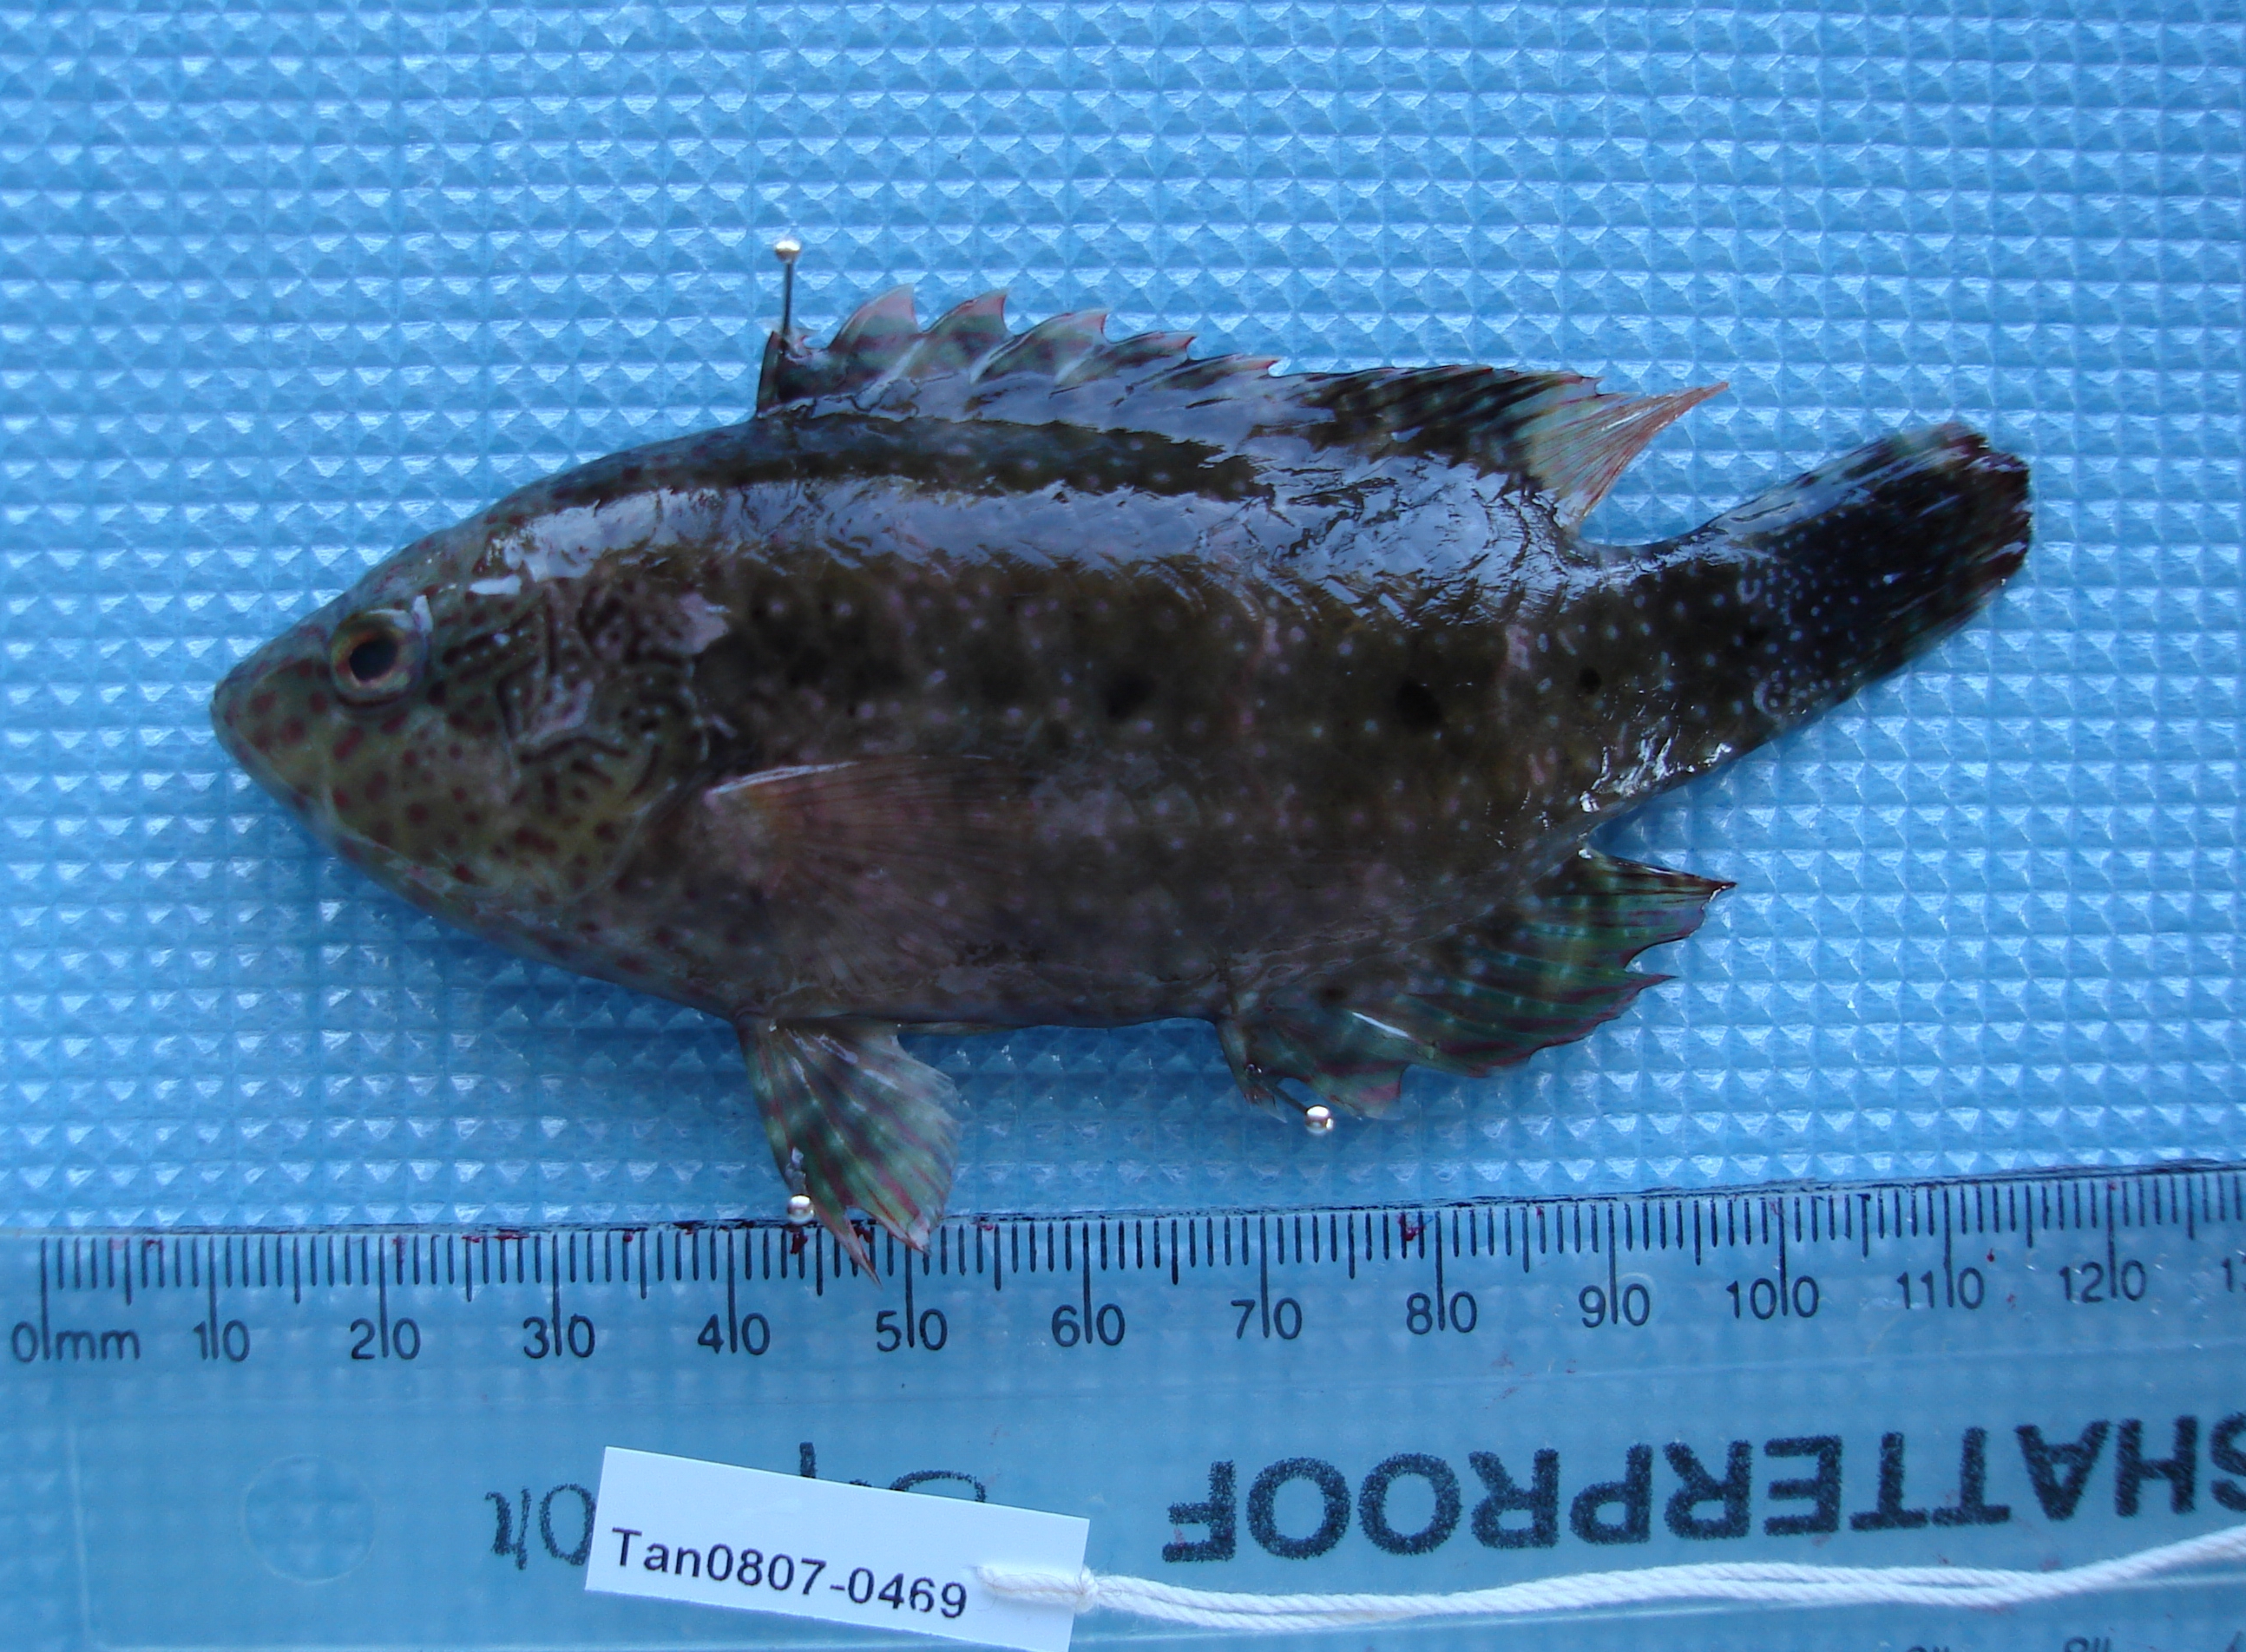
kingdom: Animalia
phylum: Chordata
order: Perciformes
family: Labridae
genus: Cheilinus
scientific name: Cheilinus chlorourus
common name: Floral wrasse
